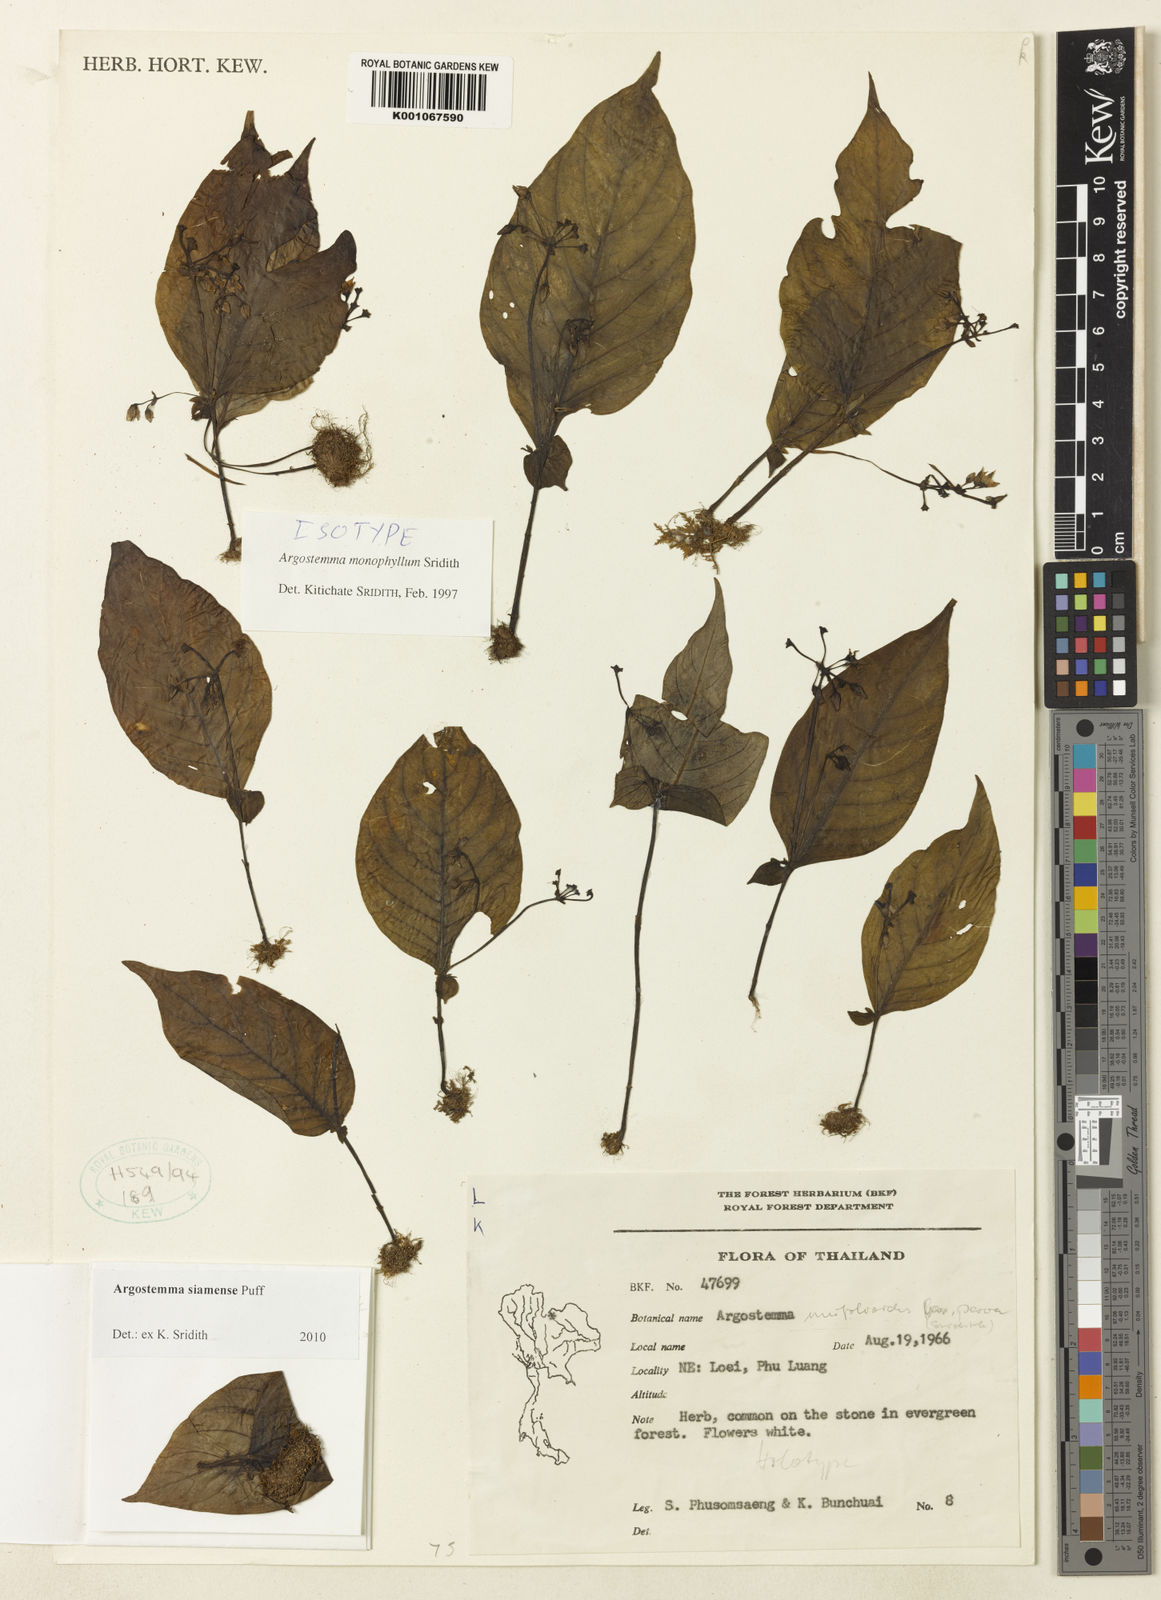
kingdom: Plantae
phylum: Tracheophyta
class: Magnoliopsida
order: Gentianales
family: Rubiaceae
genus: Argostemma
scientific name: Argostemma siamense
